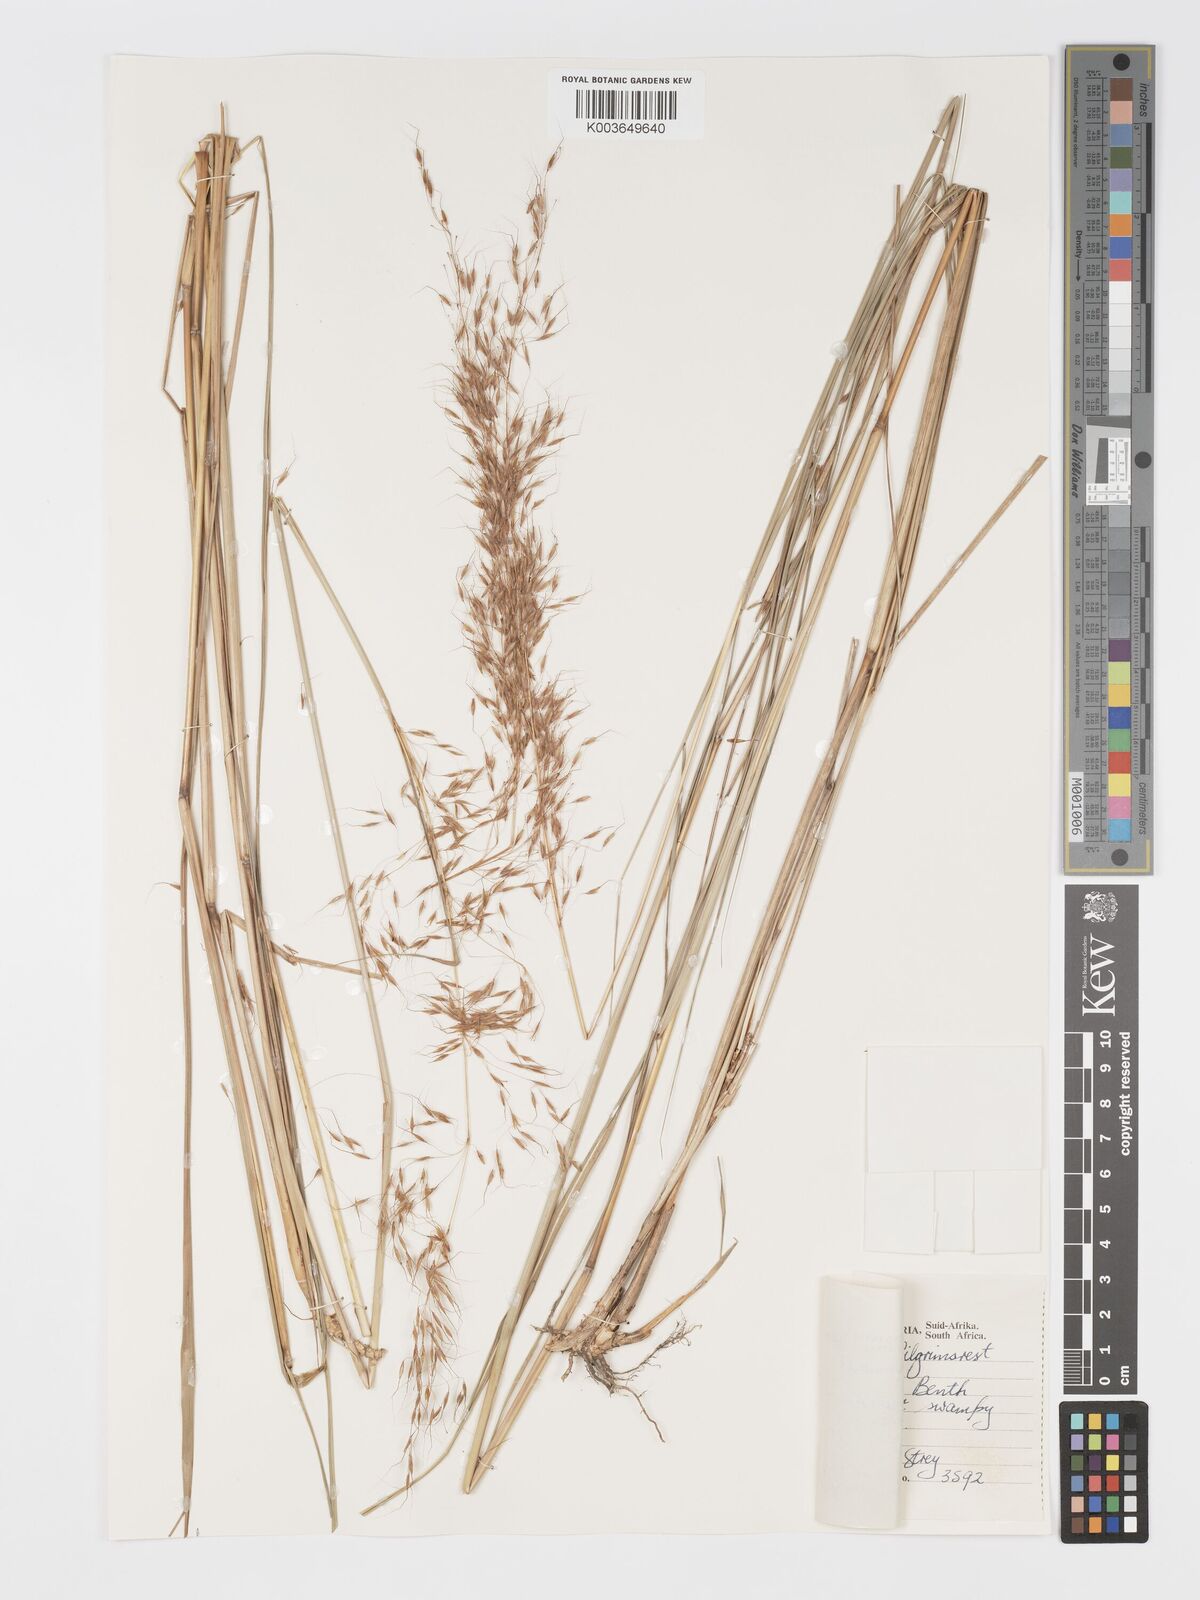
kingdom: Plantae
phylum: Tracheophyta
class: Liliopsida
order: Poales
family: Poaceae
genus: Sorghastrum
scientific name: Sorghastrum stipoides
